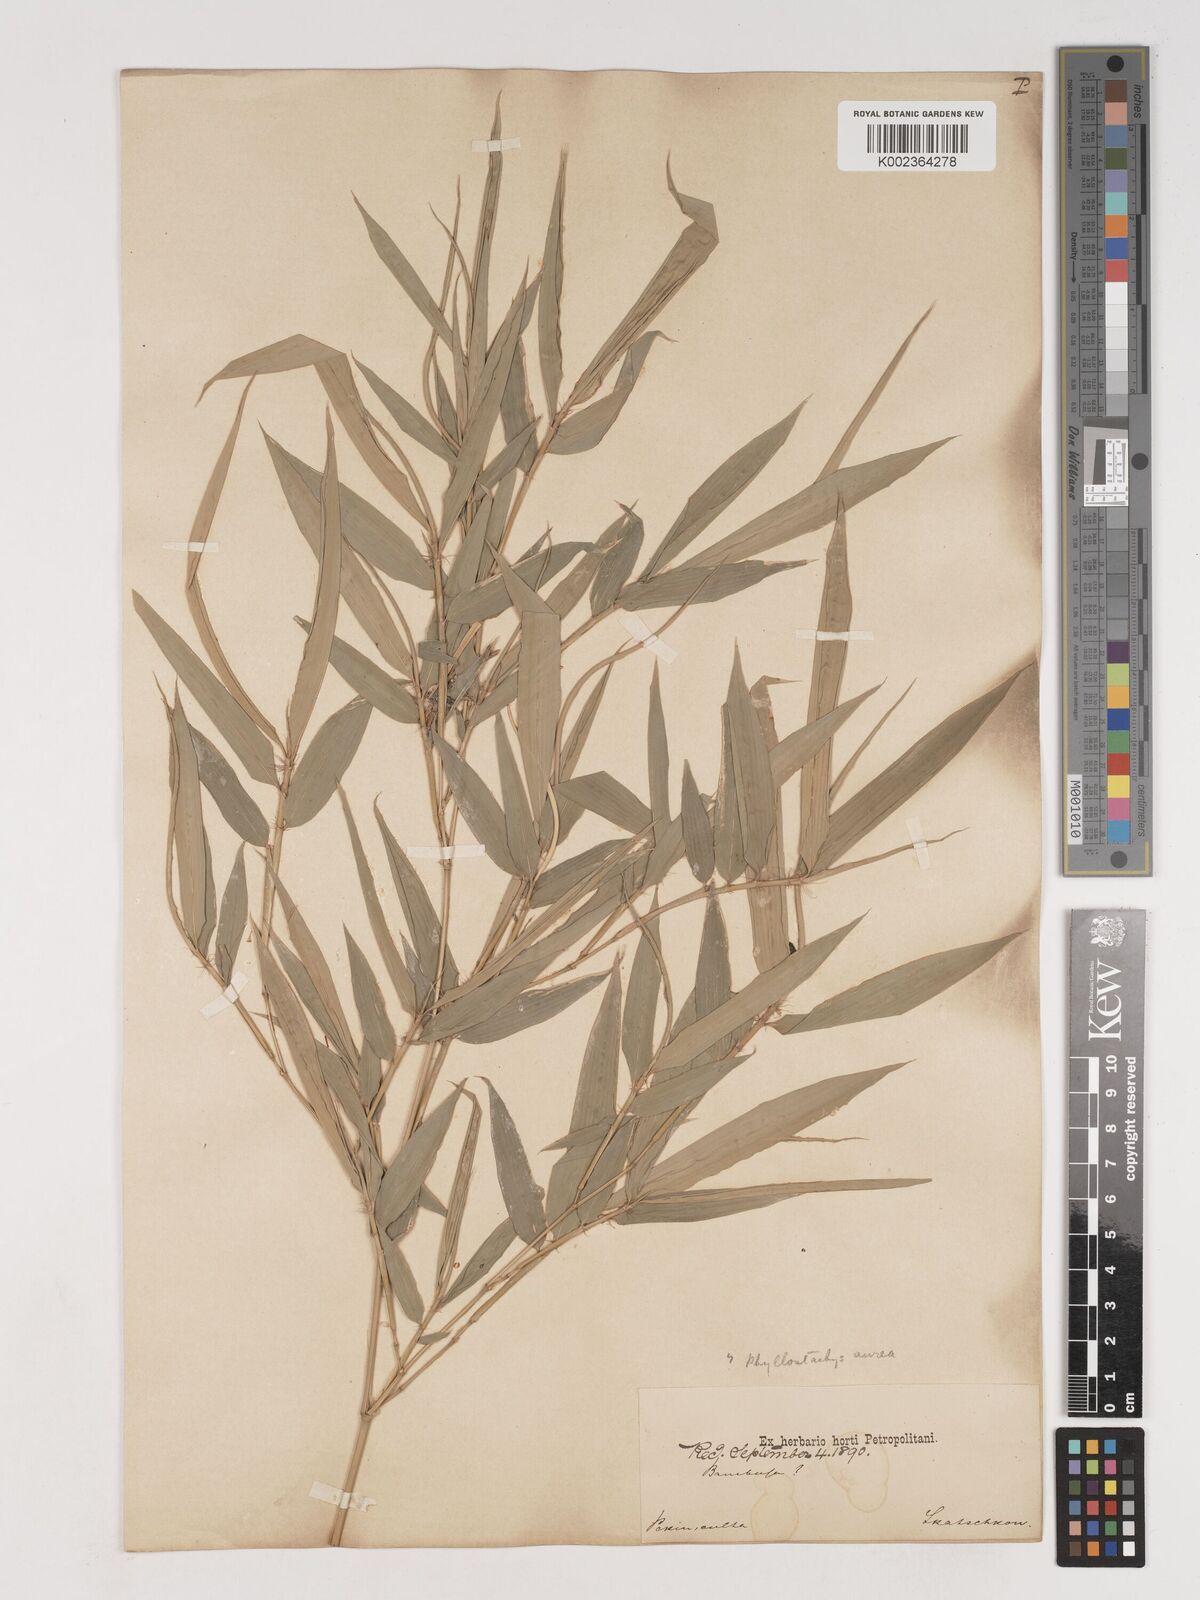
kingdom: Plantae
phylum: Tracheophyta
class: Liliopsida
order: Poales
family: Poaceae
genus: Phyllostachys
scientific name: Phyllostachys nigra
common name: Black bamboo
